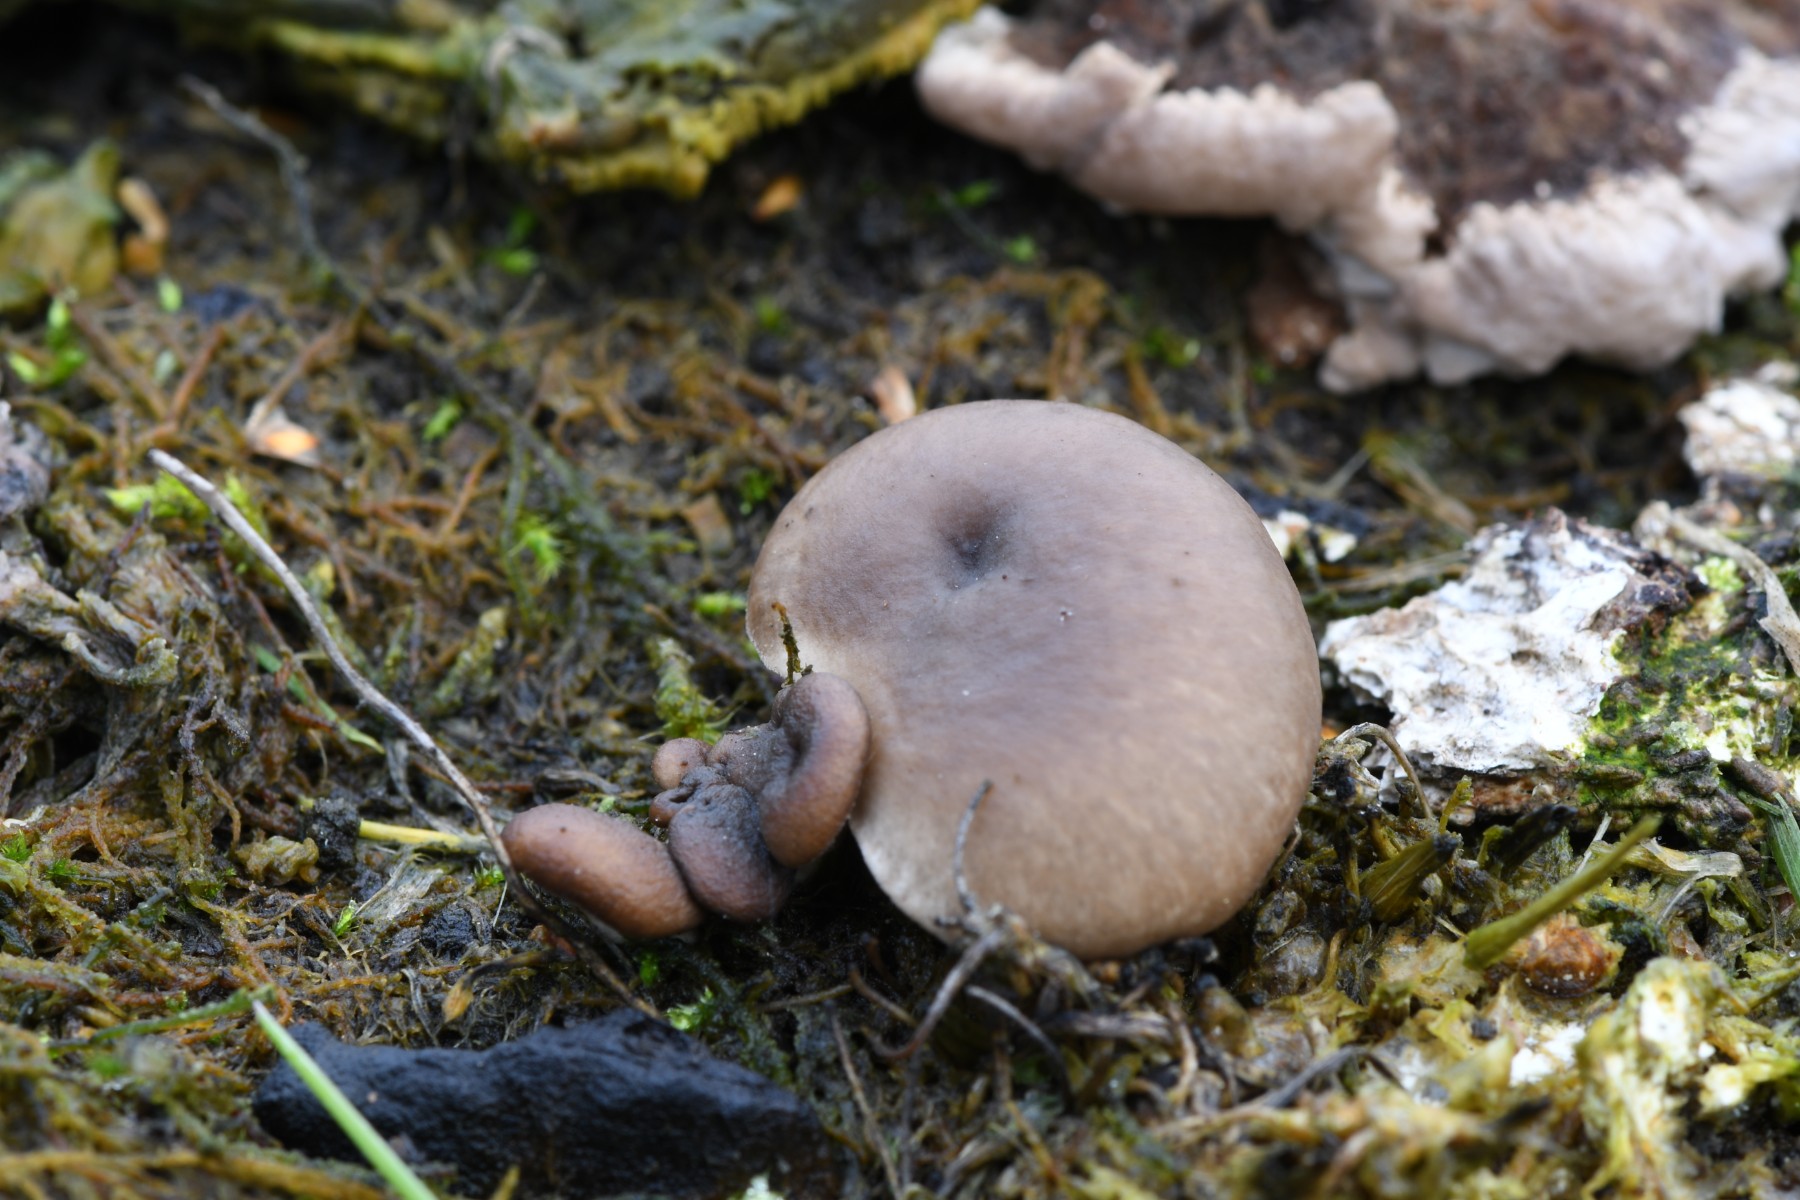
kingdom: Fungi
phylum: Basidiomycota
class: Agaricomycetes
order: Agaricales
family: Pleurotaceae
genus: Pleurotus
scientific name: Pleurotus ostreatus
